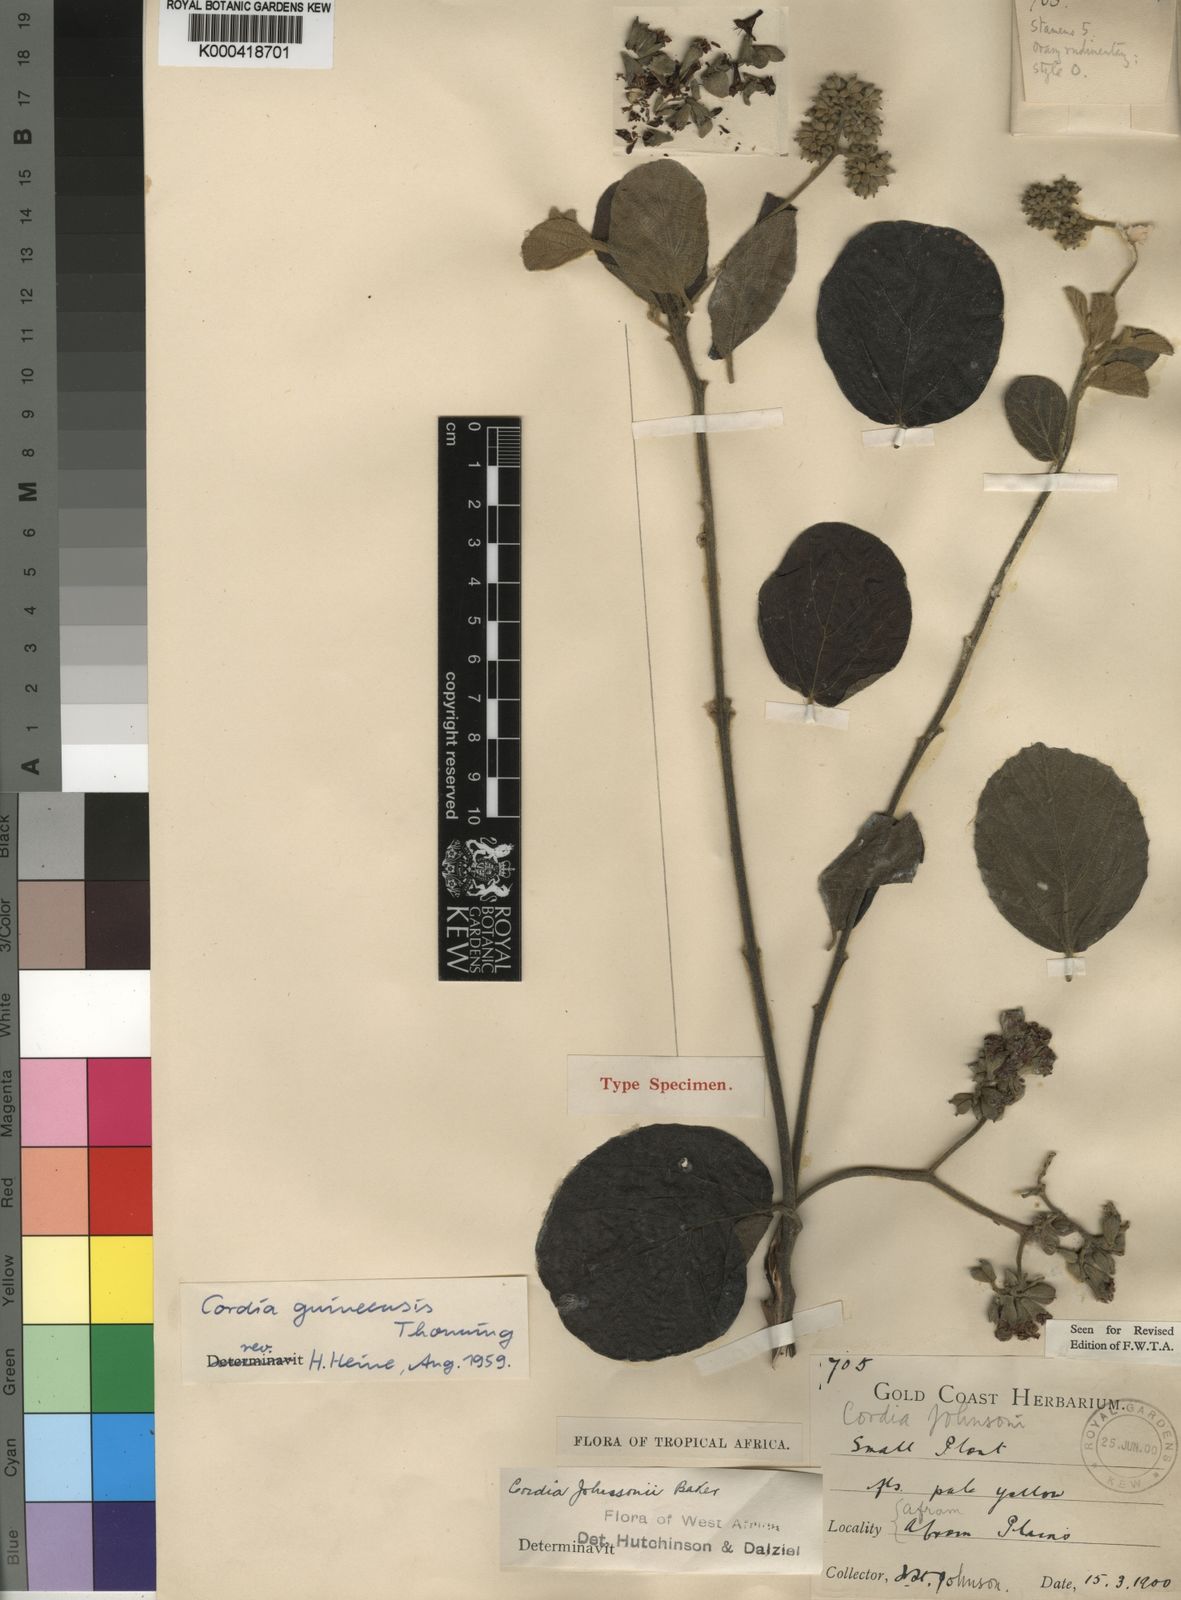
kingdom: Plantae
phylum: Tracheophyta
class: Magnoliopsida
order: Boraginales
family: Cordiaceae
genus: Cordia
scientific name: Cordia guineensis
